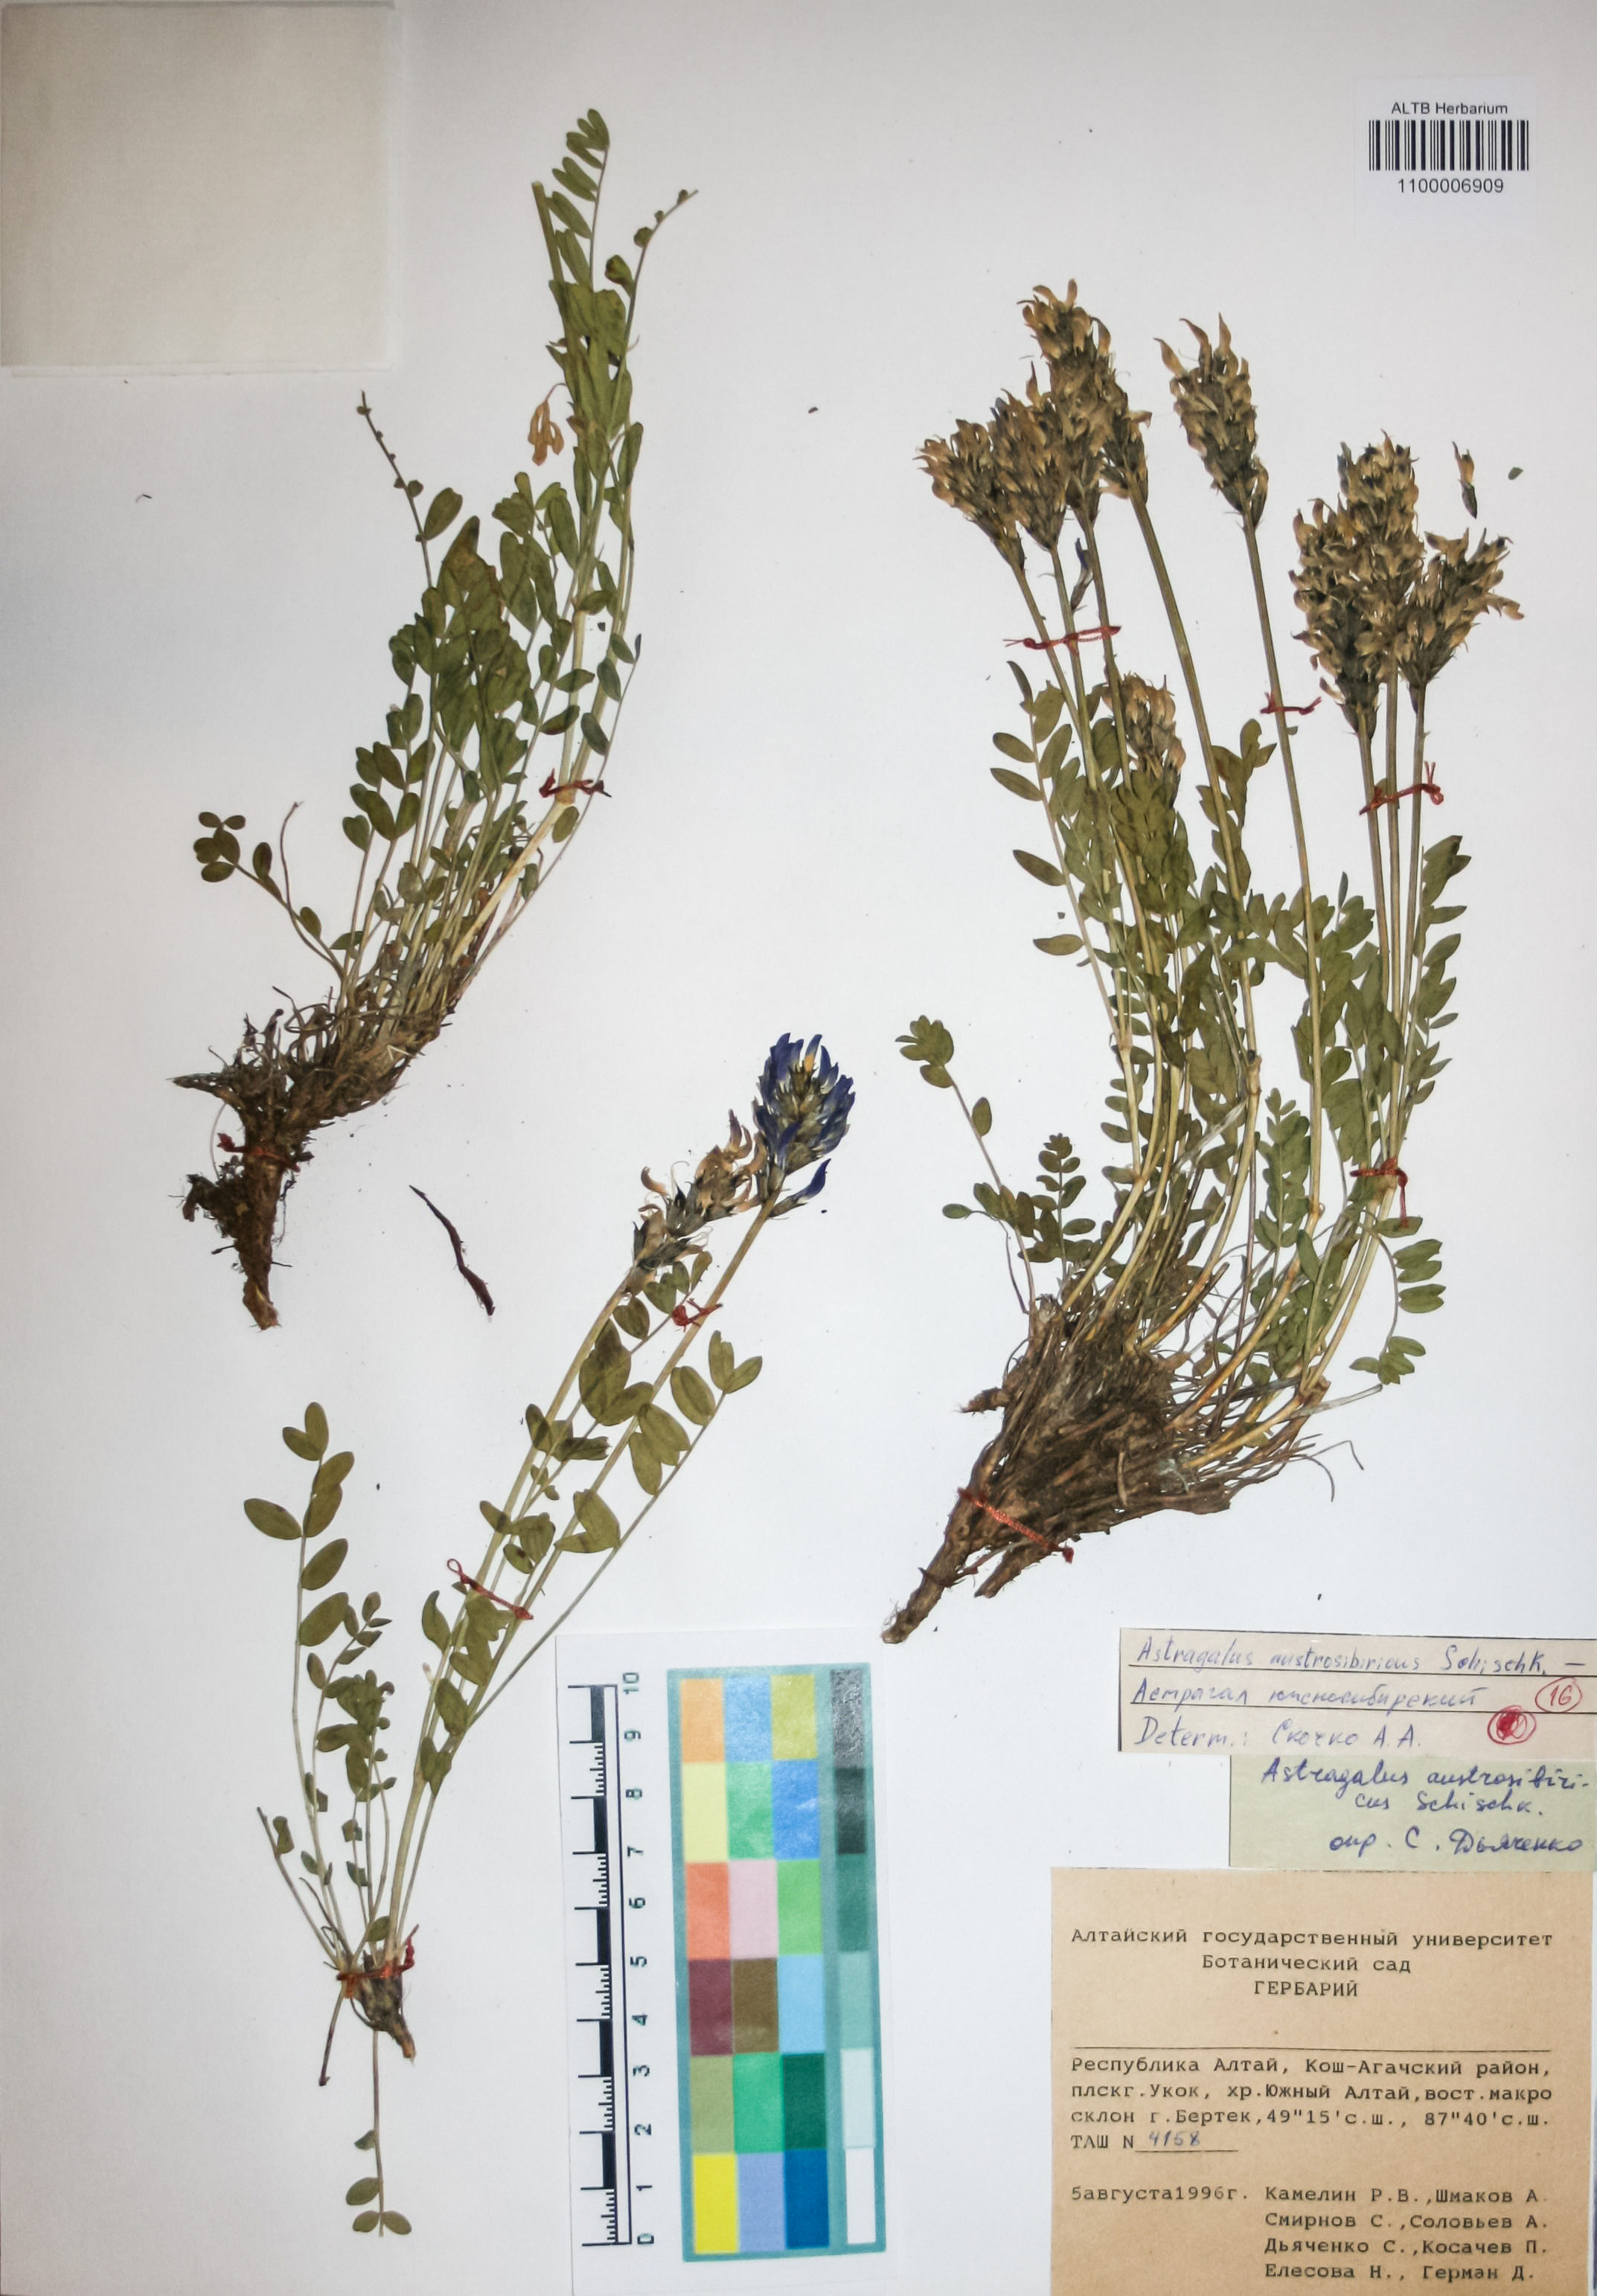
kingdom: Plantae
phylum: Tracheophyta
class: Magnoliopsida
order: Fabales
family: Fabaceae
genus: Astragalus
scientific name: Astragalus laxmannii
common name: Laxmann's milk-vetch
